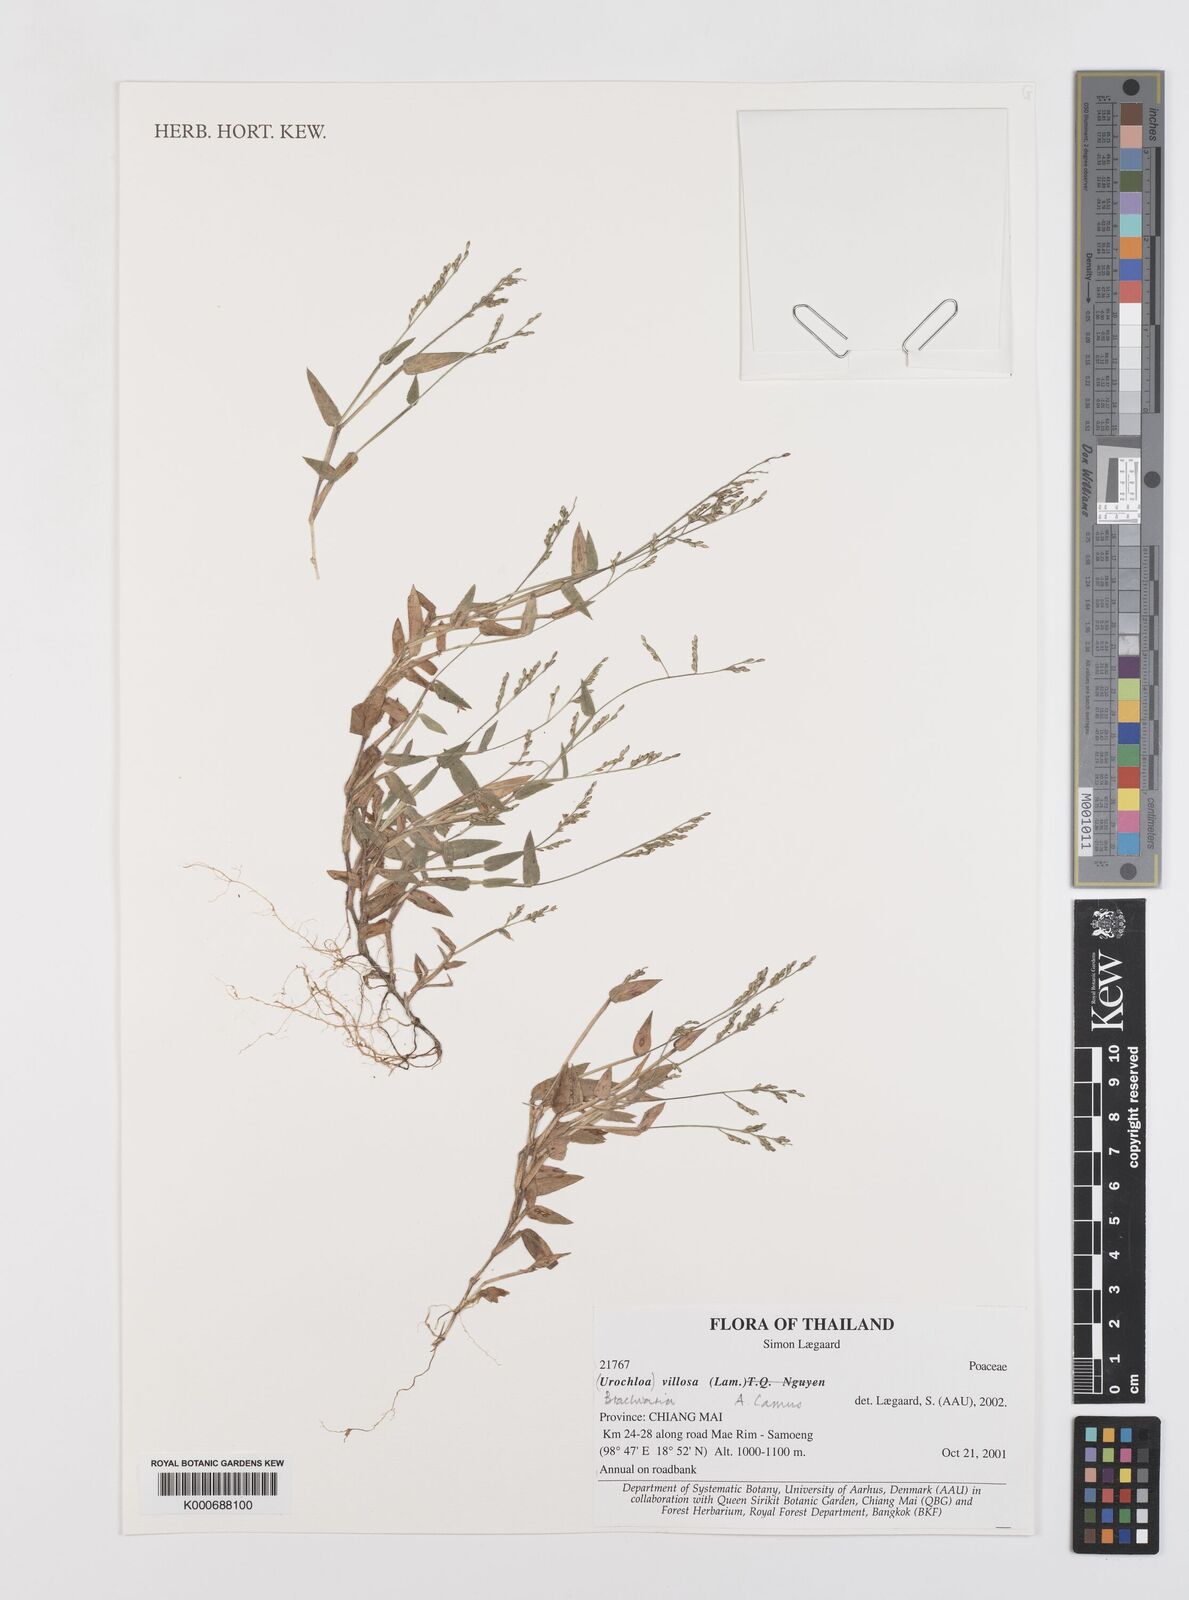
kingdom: Plantae
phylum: Tracheophyta
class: Liliopsida
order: Poales
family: Poaceae
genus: Urochloa
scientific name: Urochloa villosa
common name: Hairy signalgrass
